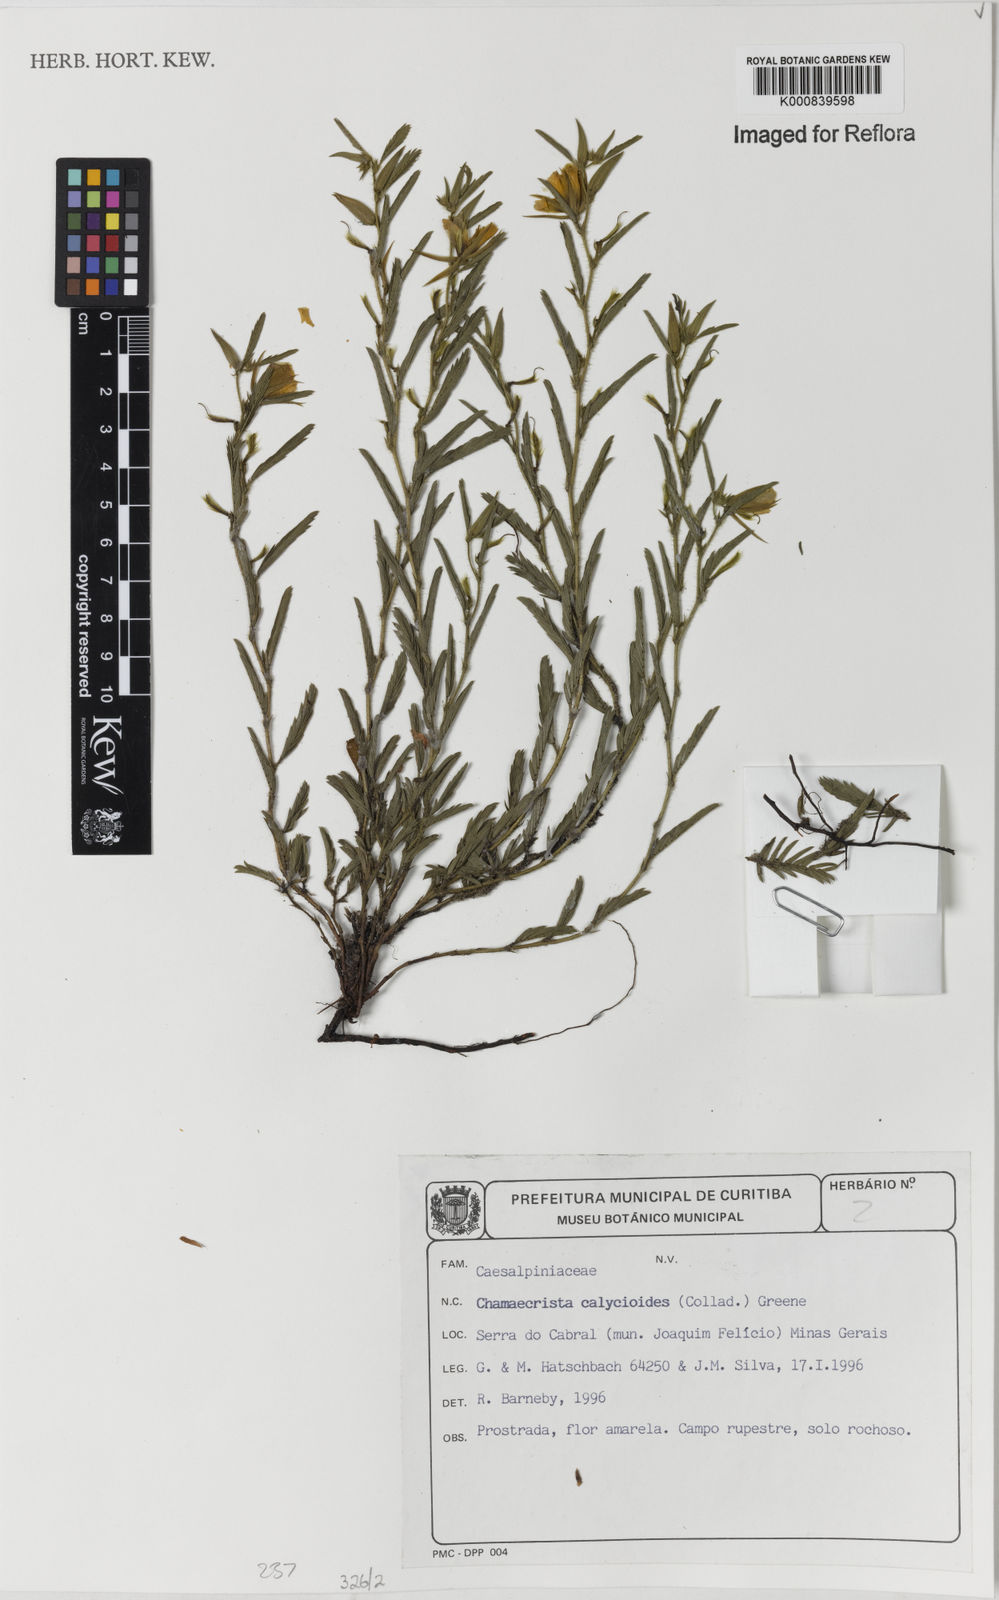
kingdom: Plantae
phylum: Tracheophyta
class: Magnoliopsida
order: Fabales
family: Fabaceae
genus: Chamaecrista
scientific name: Chamaecrista calycioides
